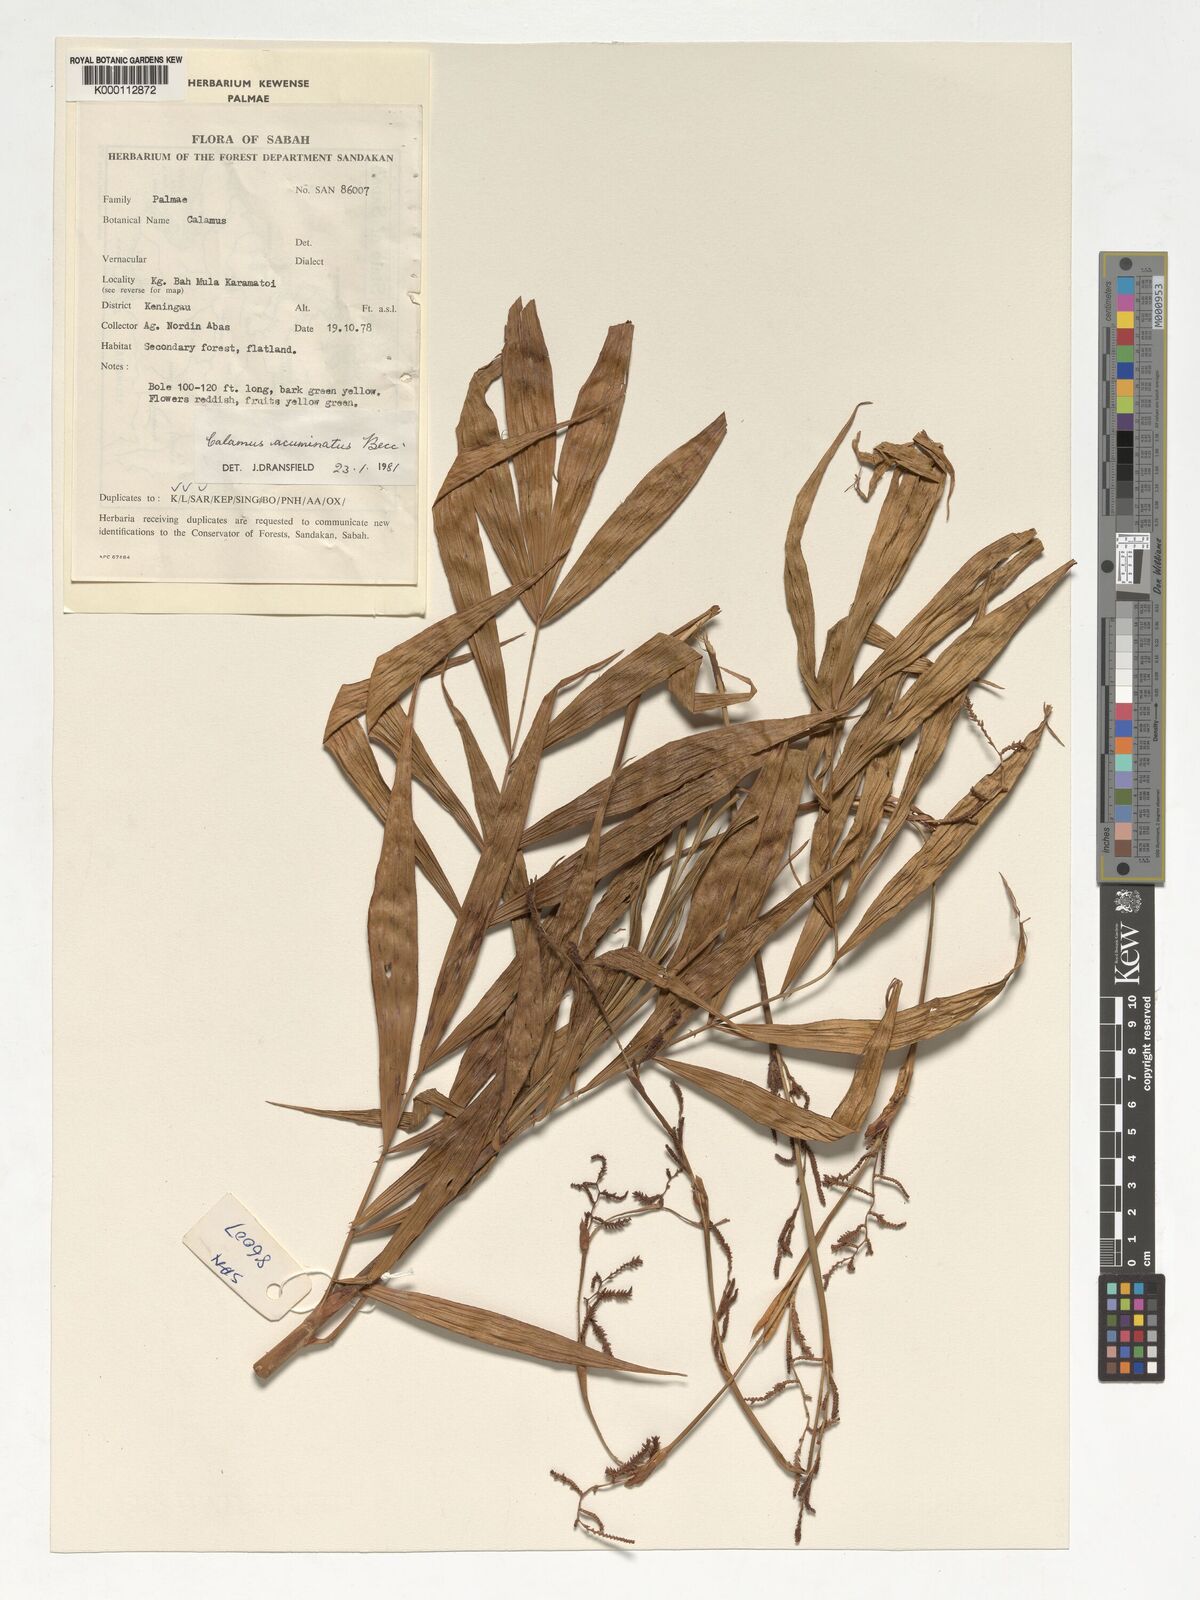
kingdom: Plantae
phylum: Tracheophyta
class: Liliopsida
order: Arecales
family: Arecaceae
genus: Calamus
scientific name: Calamus javensis
